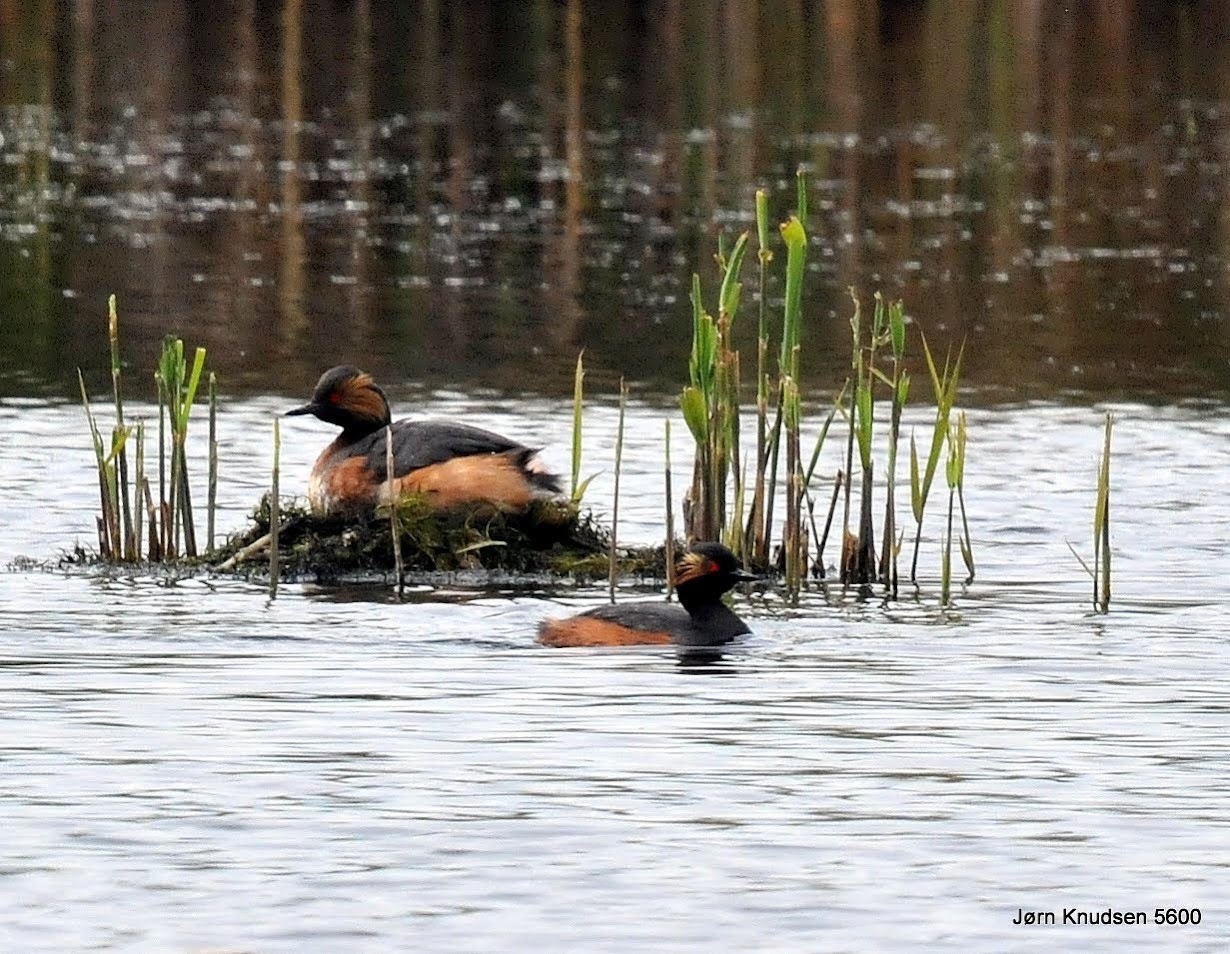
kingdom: Animalia
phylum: Chordata
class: Aves
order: Podicipediformes
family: Podicipedidae
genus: Podiceps
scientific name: Podiceps nigricollis
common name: Sorthalset lappedykker
